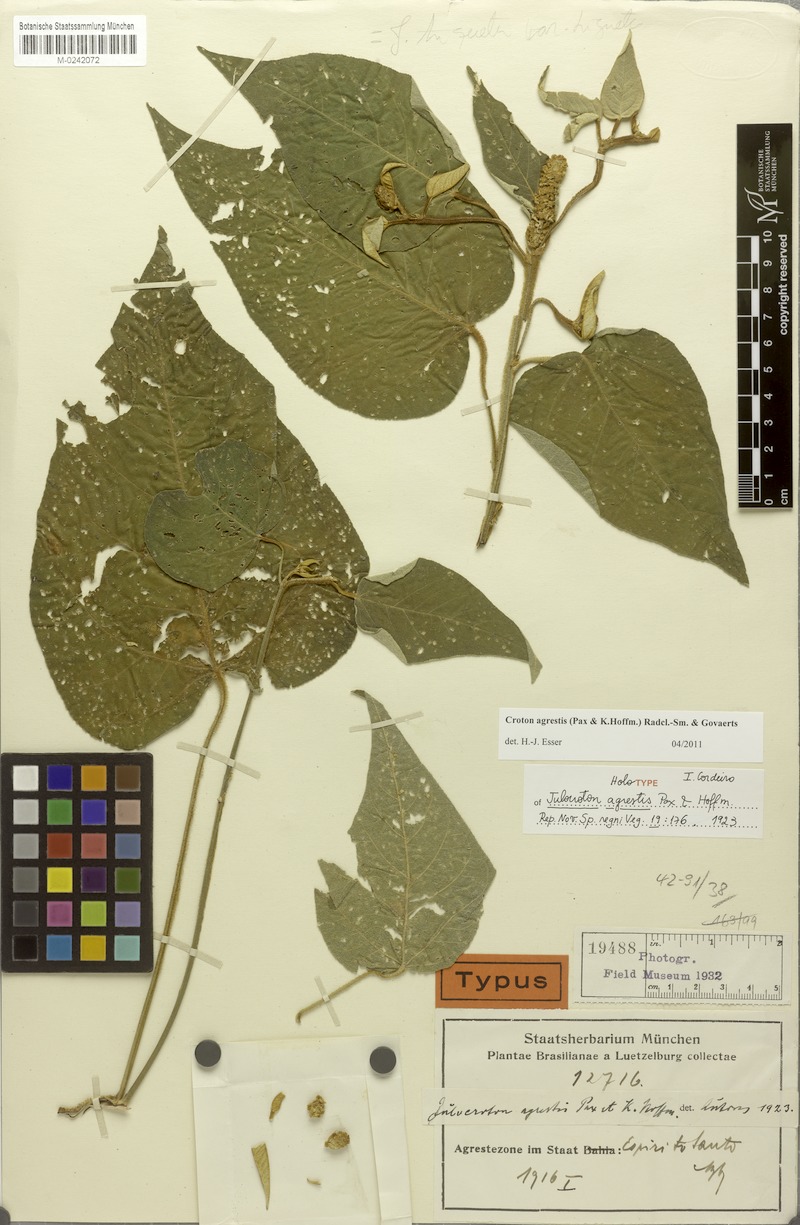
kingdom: Plantae
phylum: Tracheophyta
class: Magnoliopsida
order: Malpighiales
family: Euphorbiaceae
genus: Croton
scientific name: Croton agrestis
